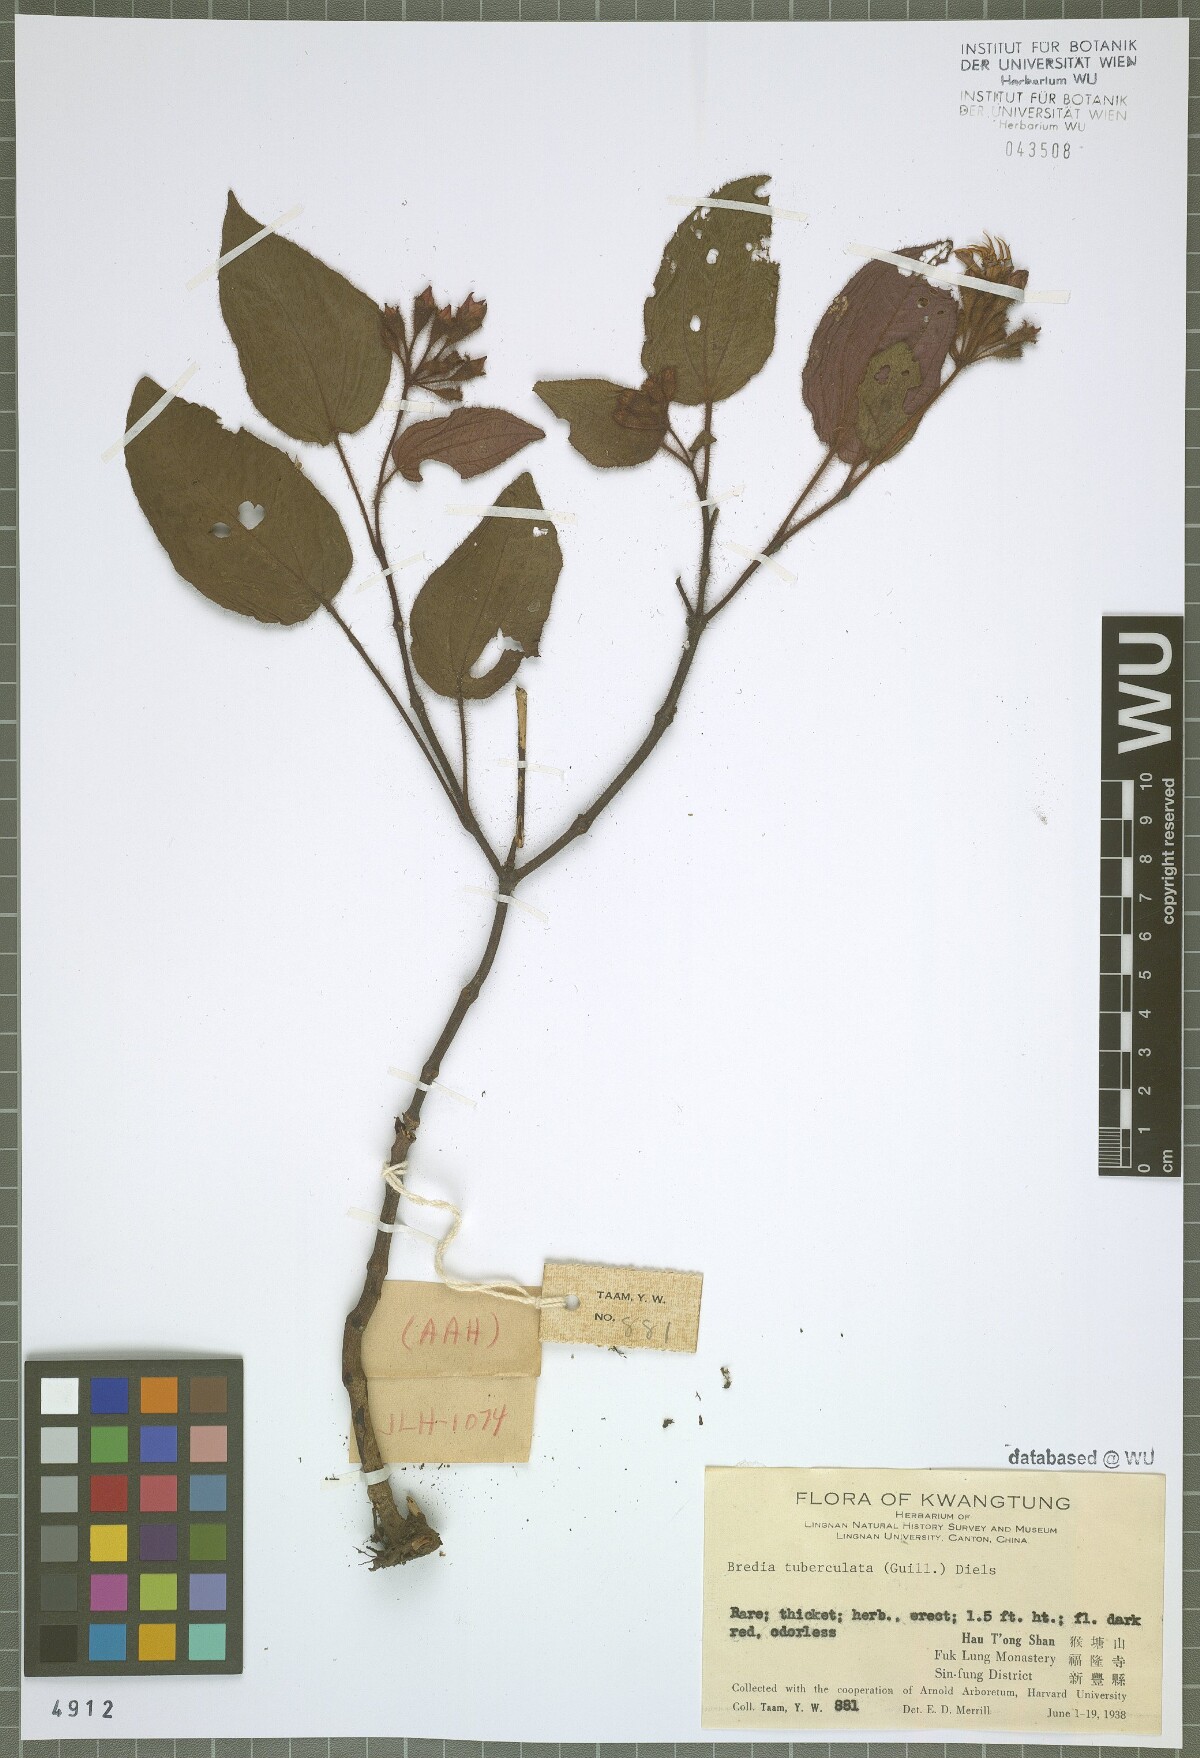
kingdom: Plantae
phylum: Tracheophyta
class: Magnoliopsida
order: Myrtales
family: Melastomataceae
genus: Bredia
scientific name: Bredia fordii
